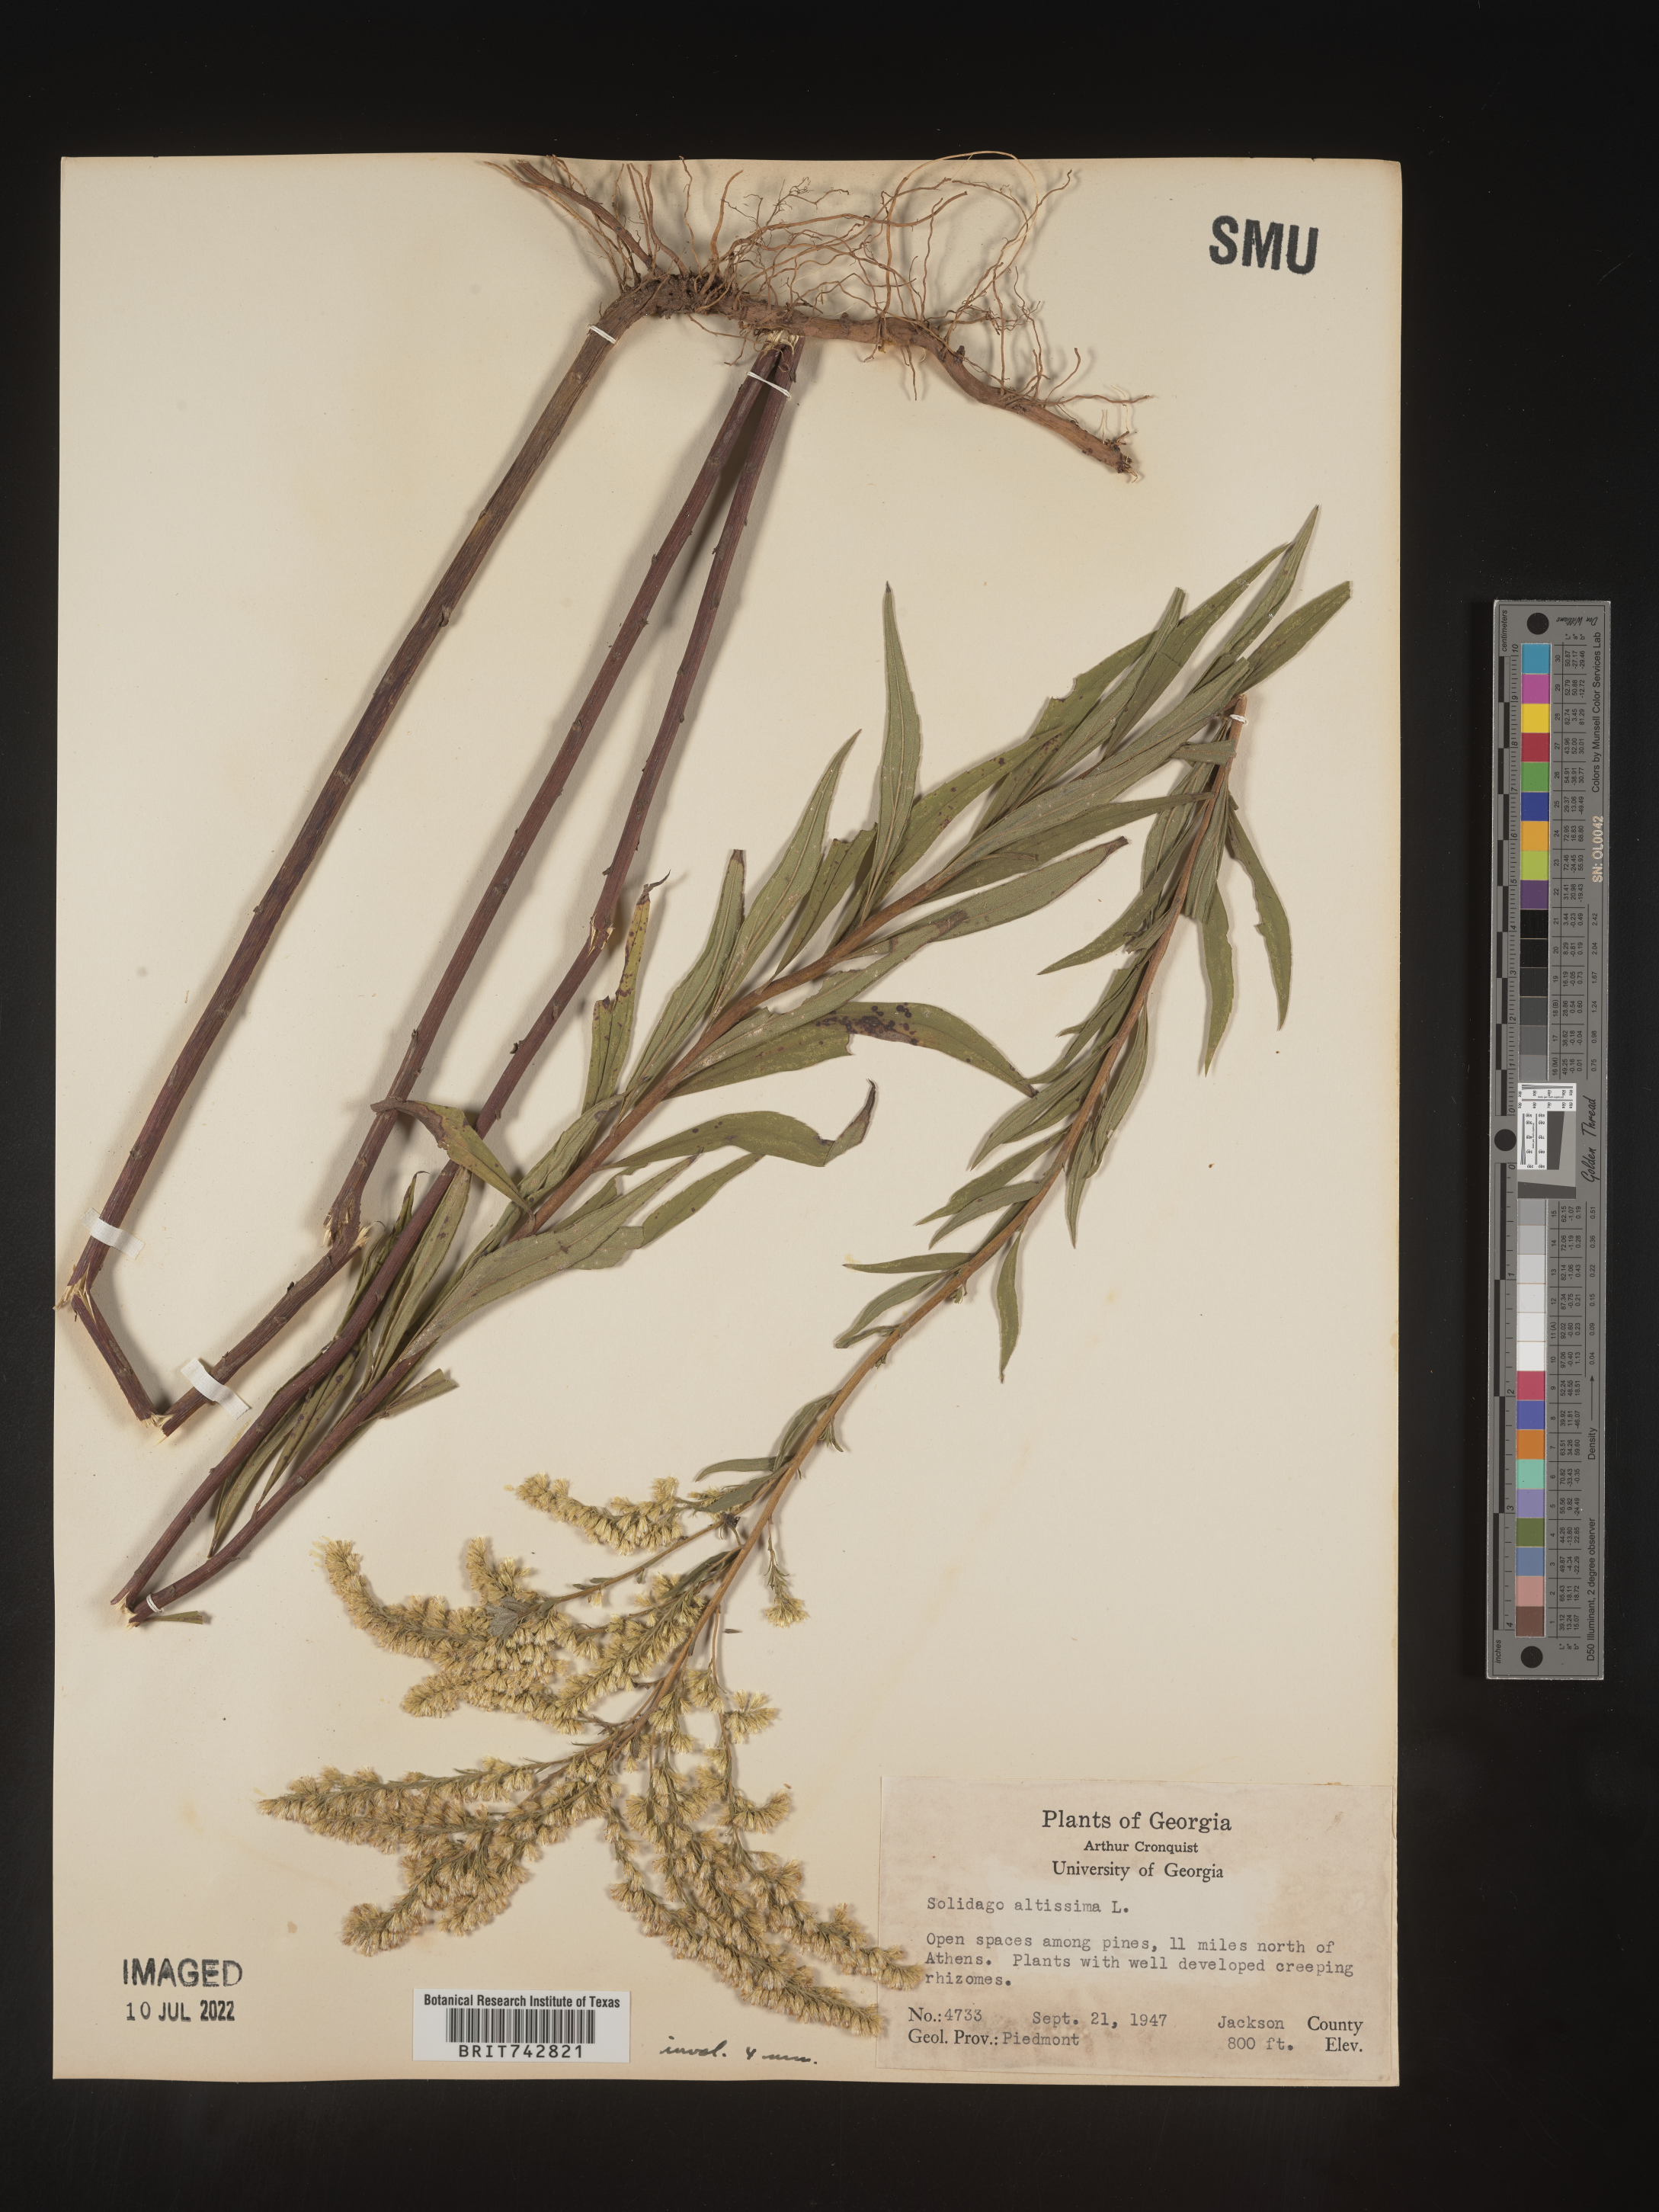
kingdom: Plantae
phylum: Tracheophyta
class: Magnoliopsida
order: Asterales
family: Asteraceae
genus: Solidago
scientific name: Solidago altissima
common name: Late goldenrod
